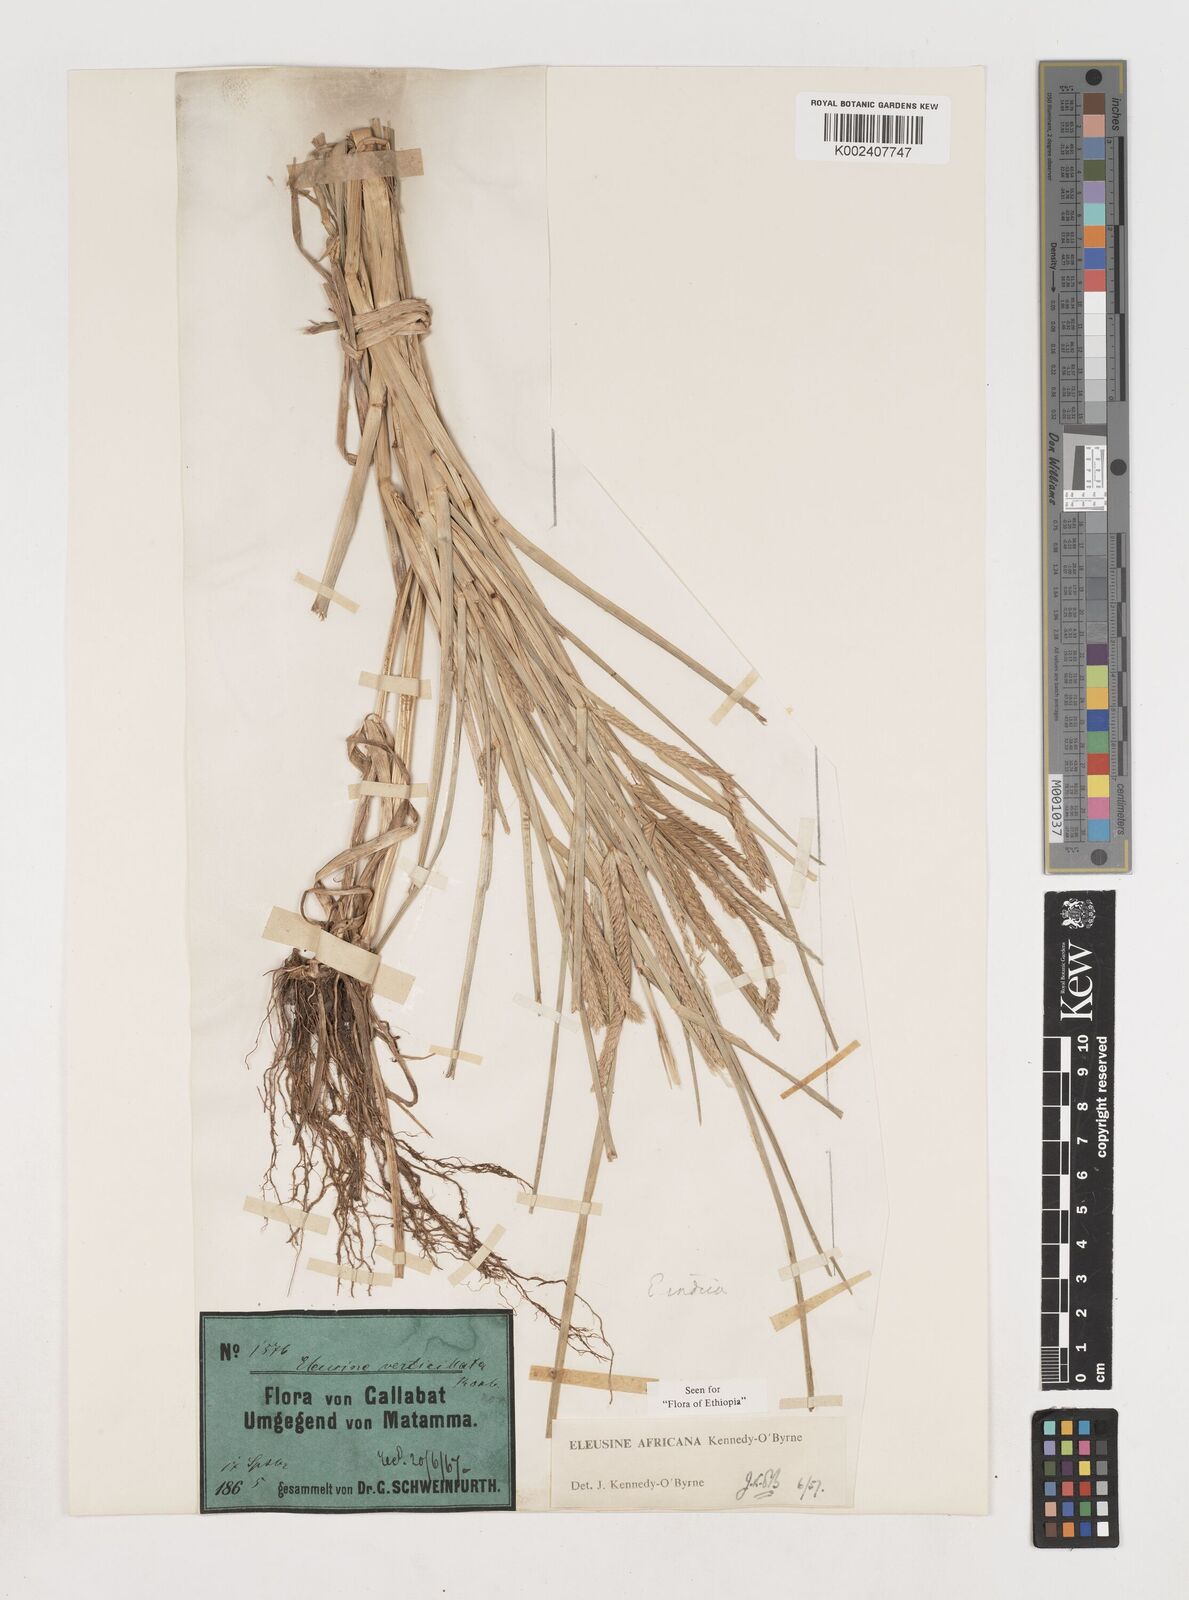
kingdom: Plantae
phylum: Tracheophyta
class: Liliopsida
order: Poales
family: Poaceae
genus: Eleusine
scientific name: Eleusine africana
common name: Wild african finger millet
